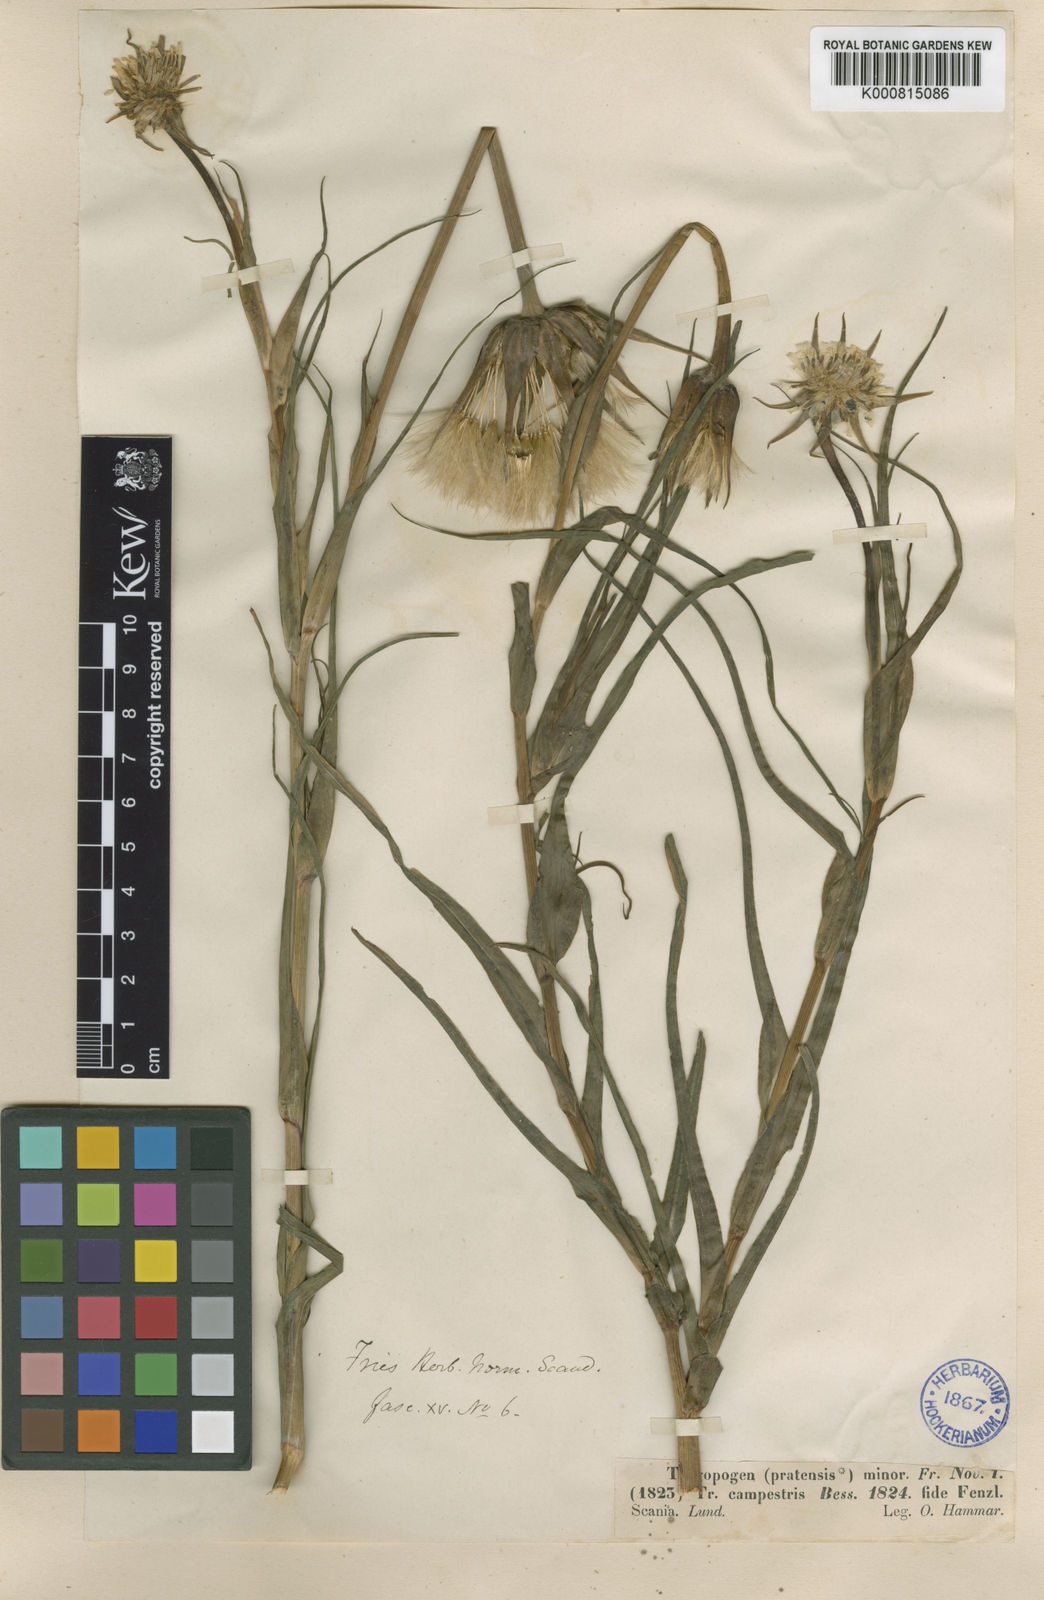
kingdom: Plantae
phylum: Tracheophyta
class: Magnoliopsida
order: Asterales
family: Asteraceae
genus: Tragopogon
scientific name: Tragopogon pratensis
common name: Goat's-beard
